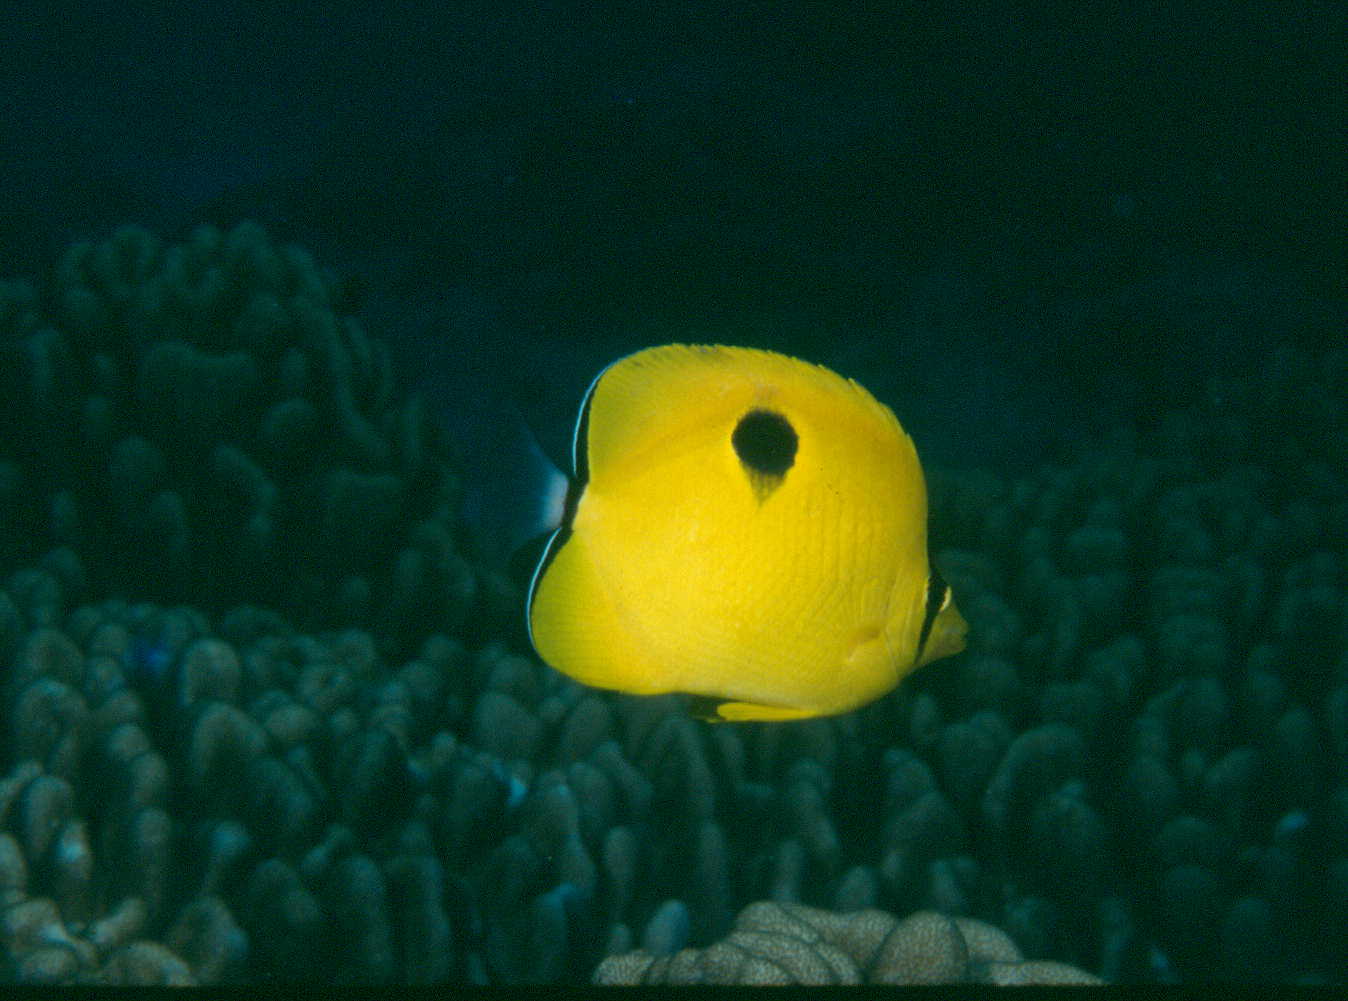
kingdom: Animalia
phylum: Chordata
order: Perciformes
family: Chaetodontidae
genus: Chaetodon
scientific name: Chaetodon unimaculatus
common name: Teardrop butterflyfish
